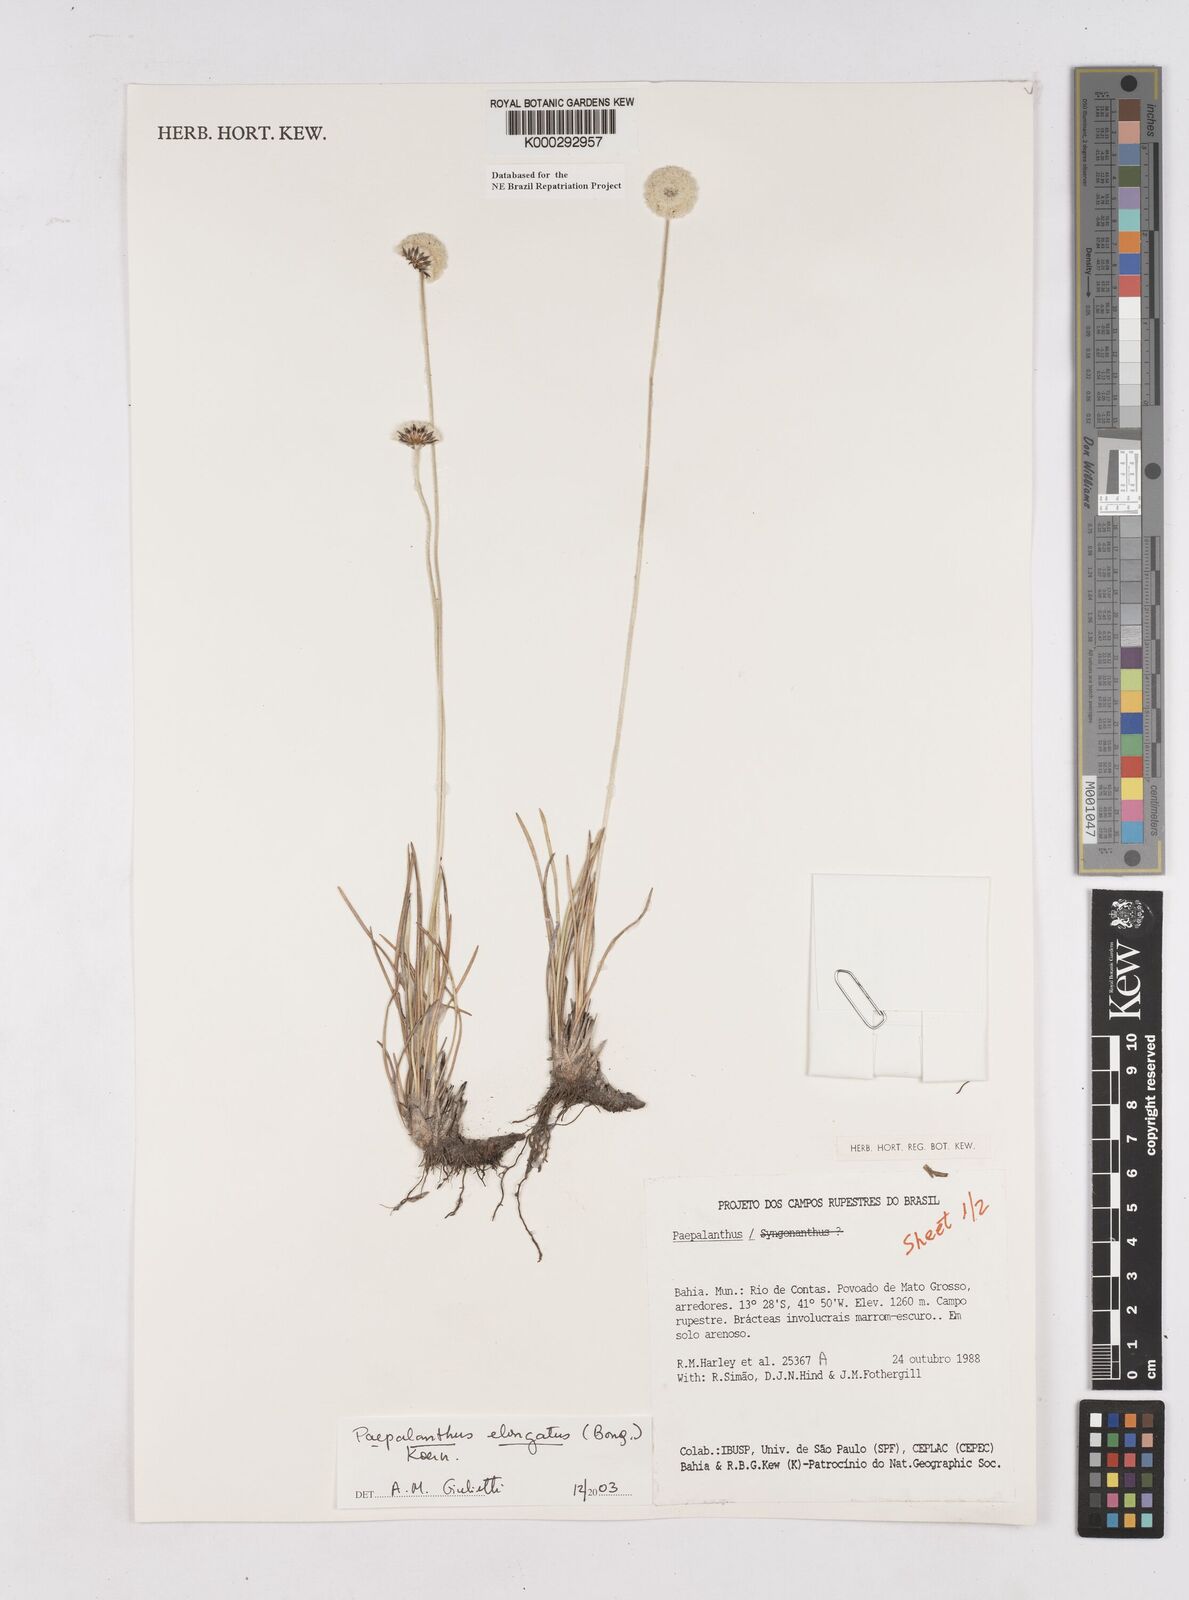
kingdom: Plantae
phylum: Tracheophyta
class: Liliopsida
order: Poales
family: Eriocaulaceae
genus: Paepalanthus
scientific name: Paepalanthus
